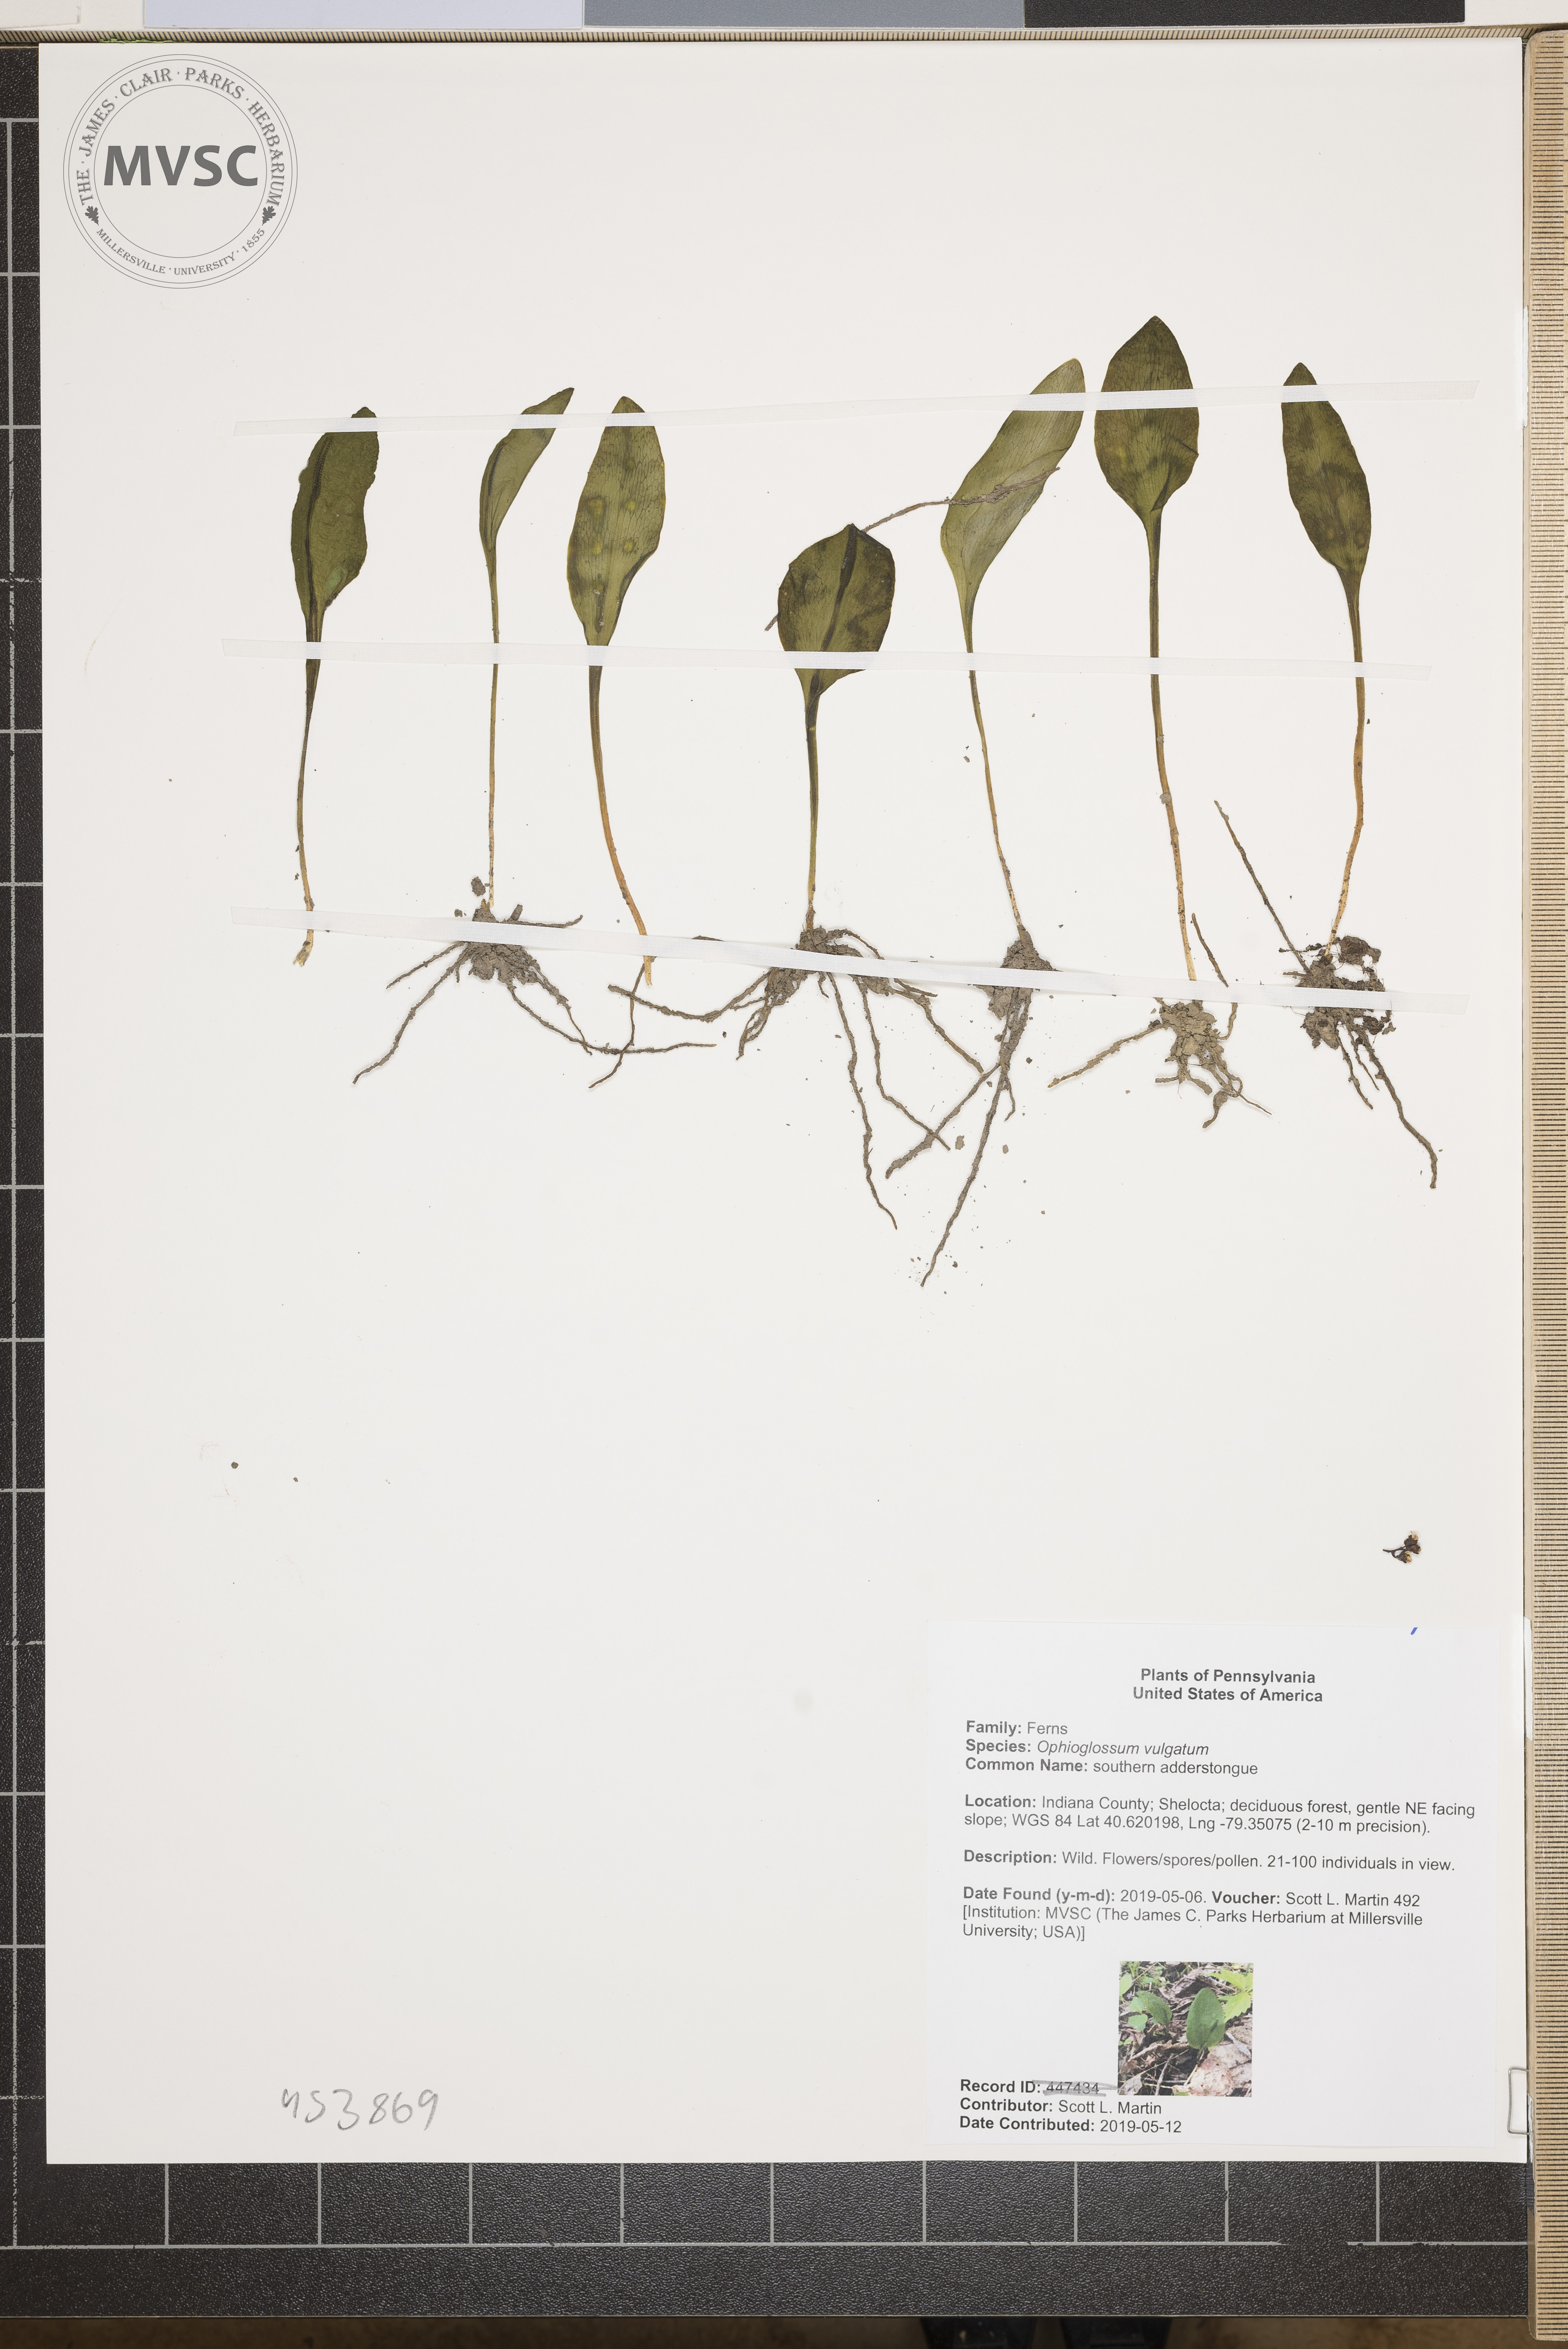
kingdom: Plantae
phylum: Tracheophyta
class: Polypodiopsida
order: Ophioglossales
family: Ophioglossaceae
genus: Ophioglossum
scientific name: Ophioglossum vulgatum
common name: southern adderstongue
